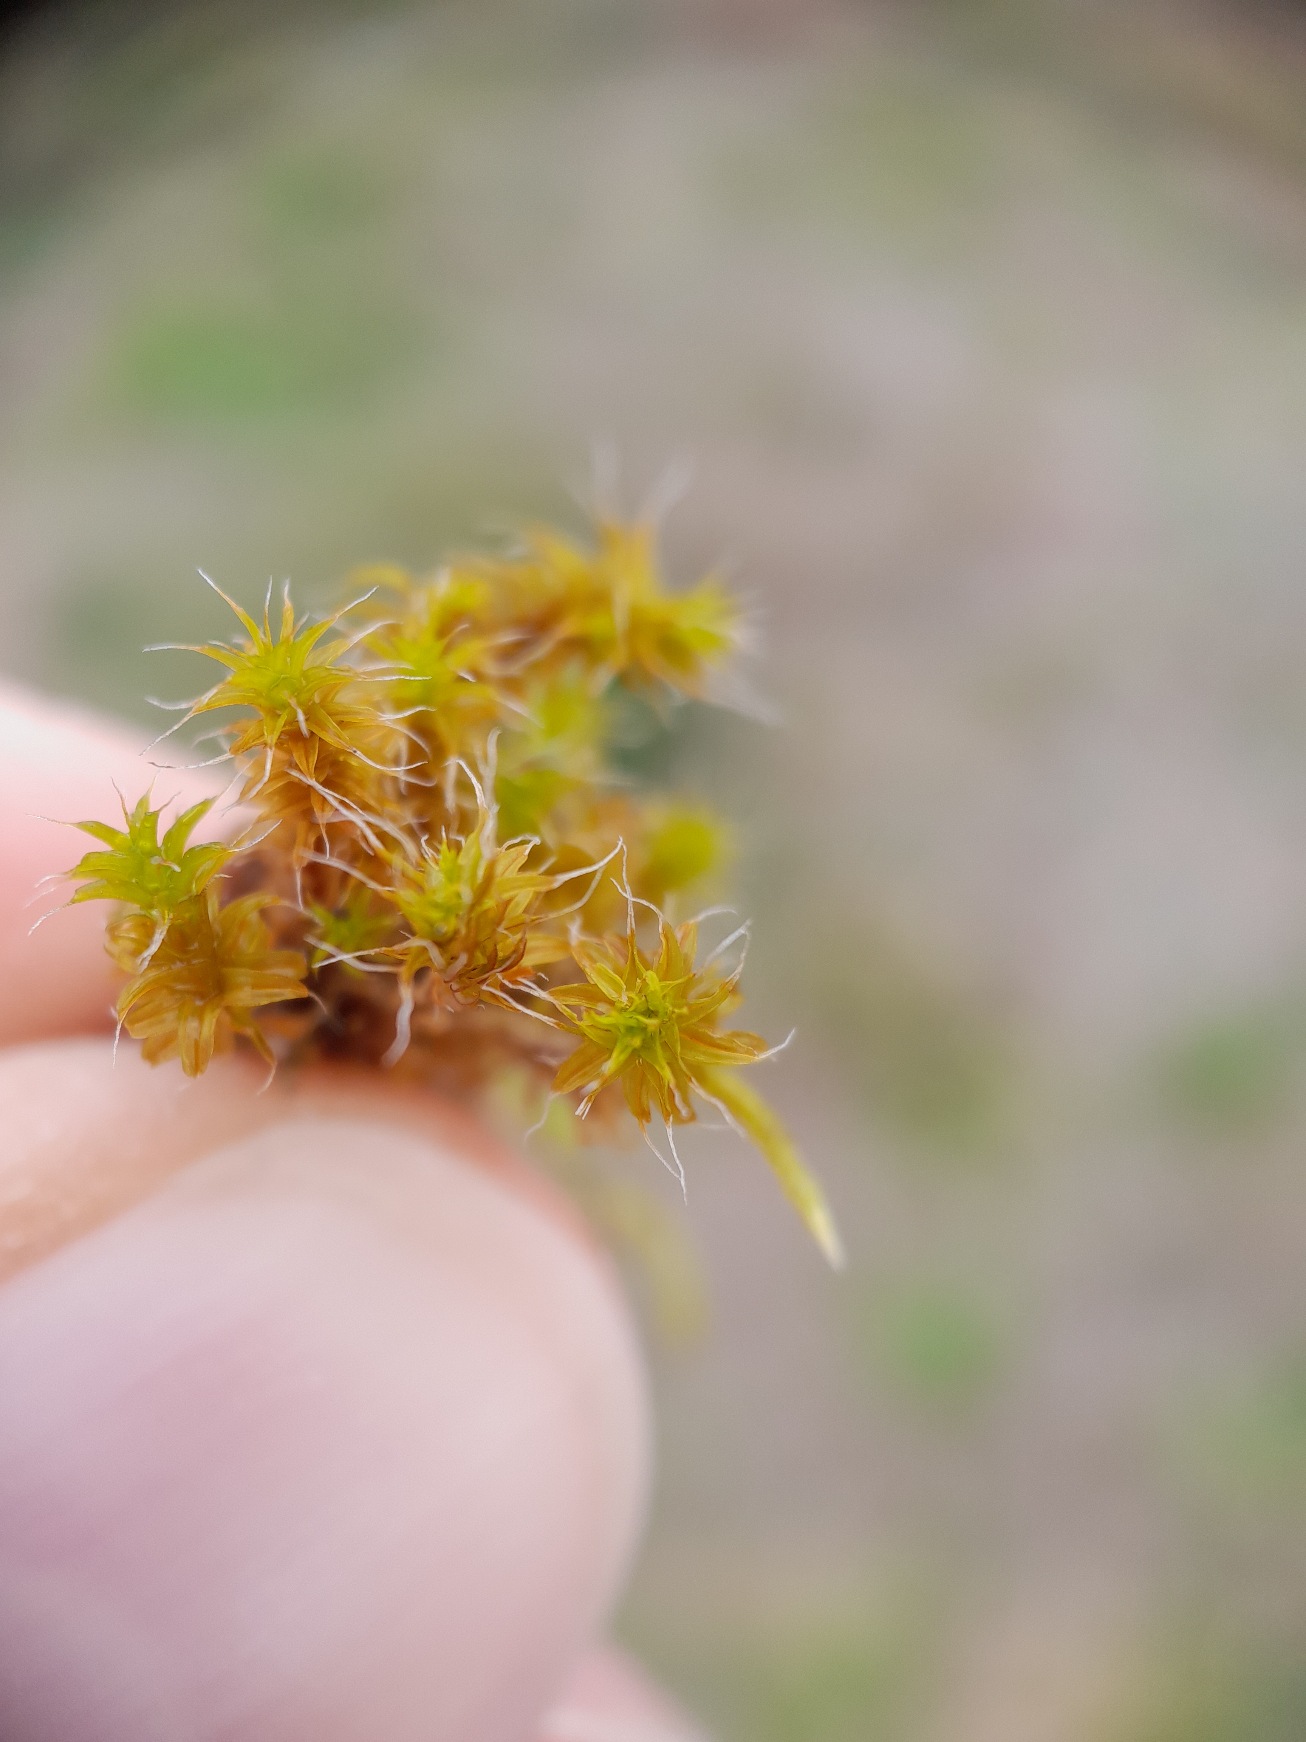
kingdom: Plantae
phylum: Bryophyta
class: Bryopsida
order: Pottiales
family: Pottiaceae
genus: Syntrichia
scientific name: Syntrichia ruralis
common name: Spidsbladet hårstjerne
